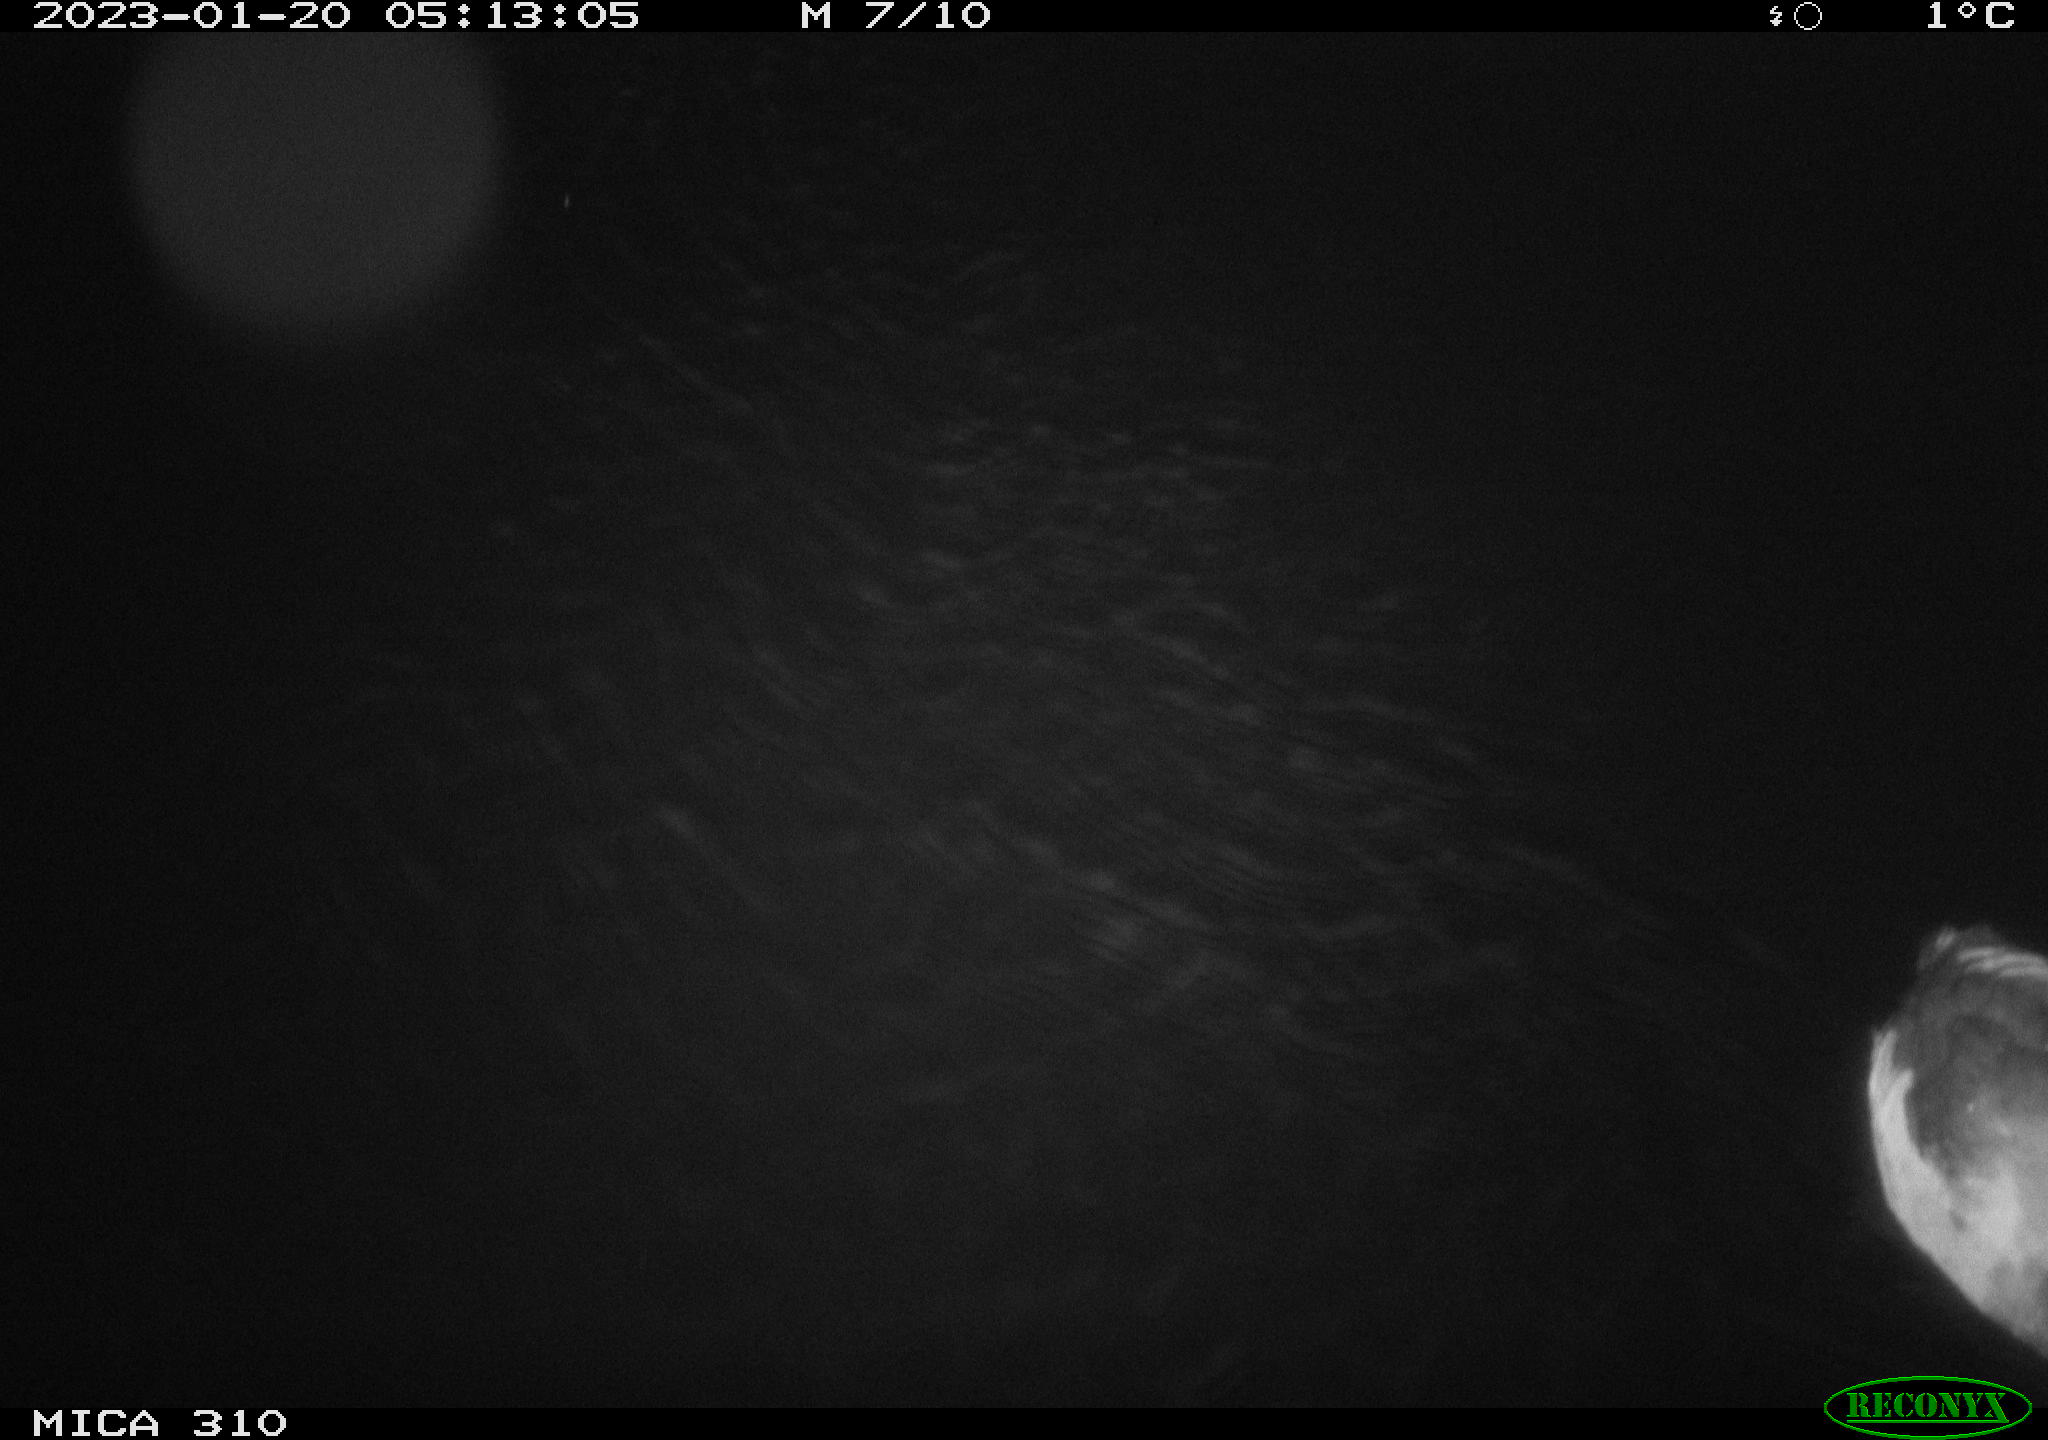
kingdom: Animalia
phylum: Chordata
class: Aves
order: Anseriformes
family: Anatidae
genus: Anas
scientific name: Anas
